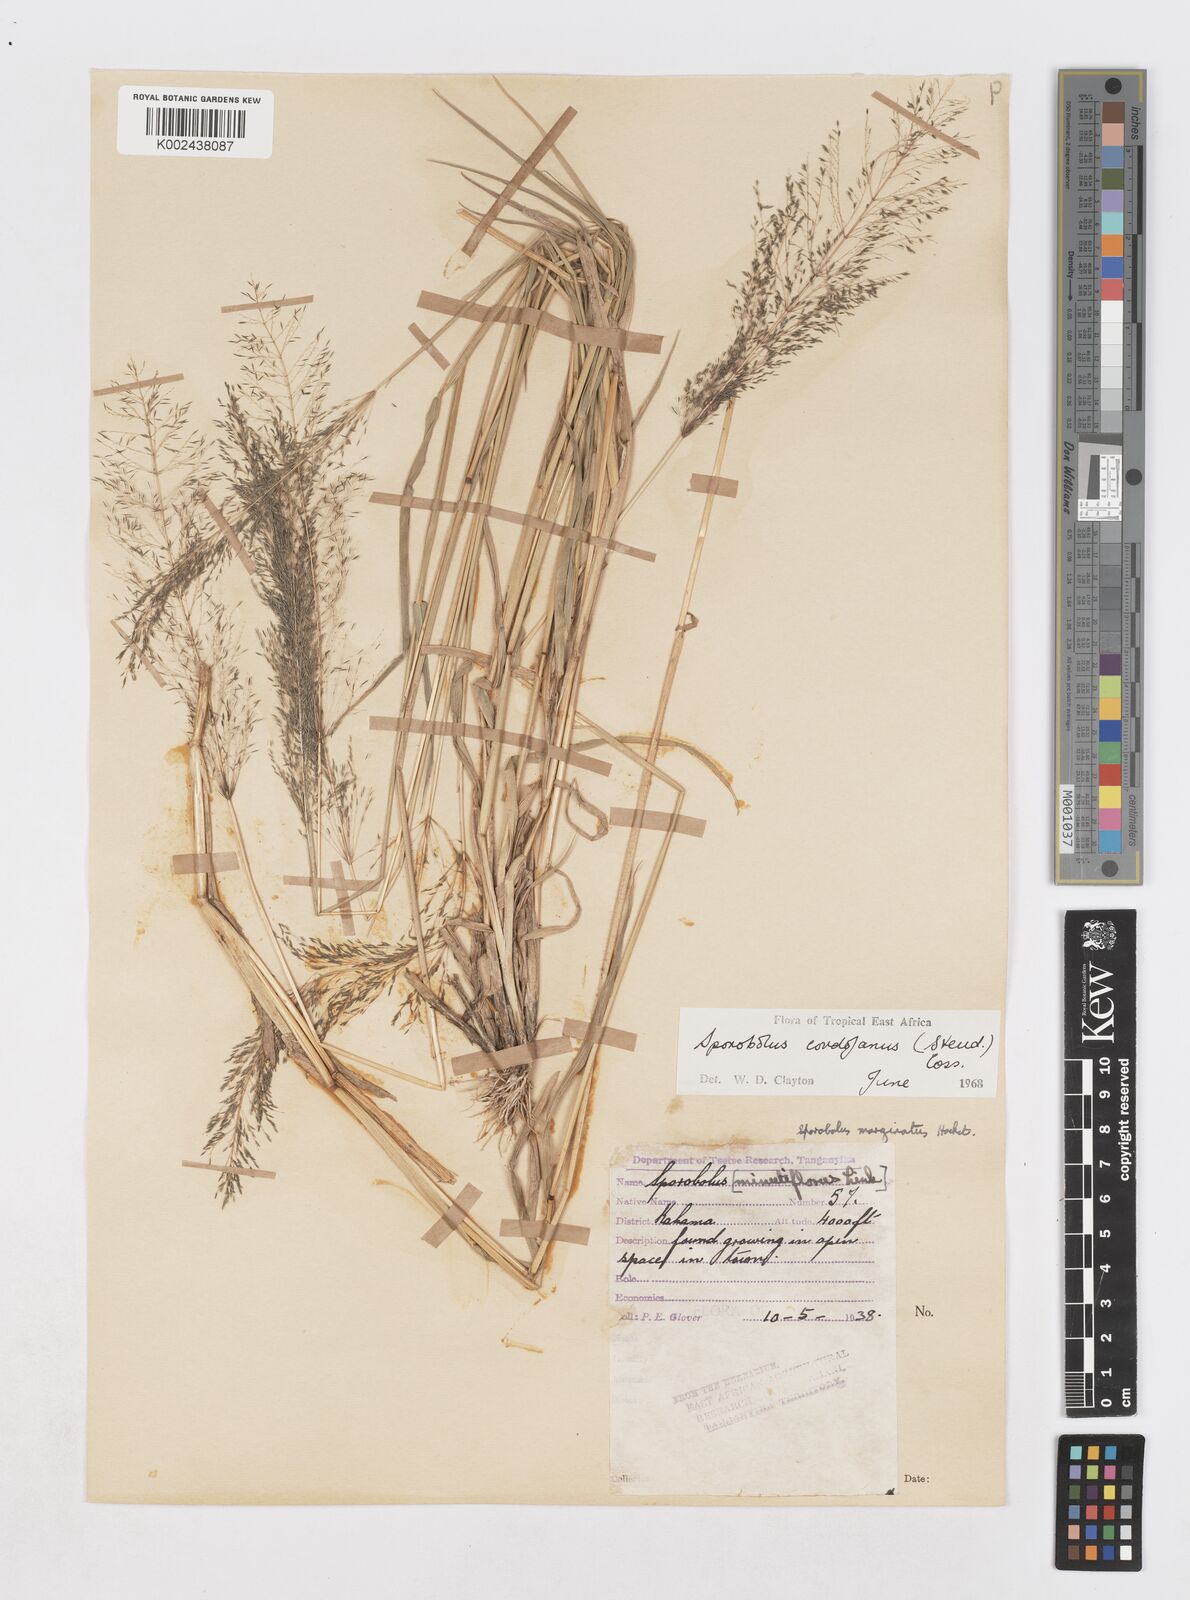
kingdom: Plantae
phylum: Tracheophyta
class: Liliopsida
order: Poales
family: Poaceae
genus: Sporobolus
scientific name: Sporobolus cordofanus
